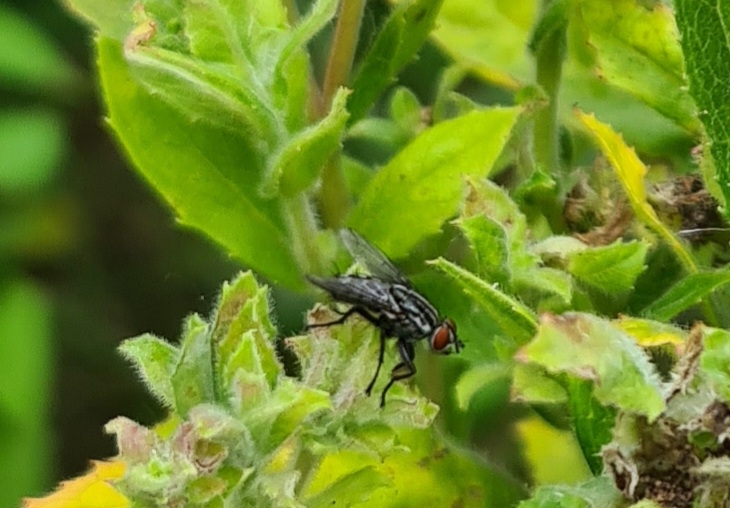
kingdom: Animalia
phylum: Arthropoda
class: Insecta
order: Diptera
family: Sarcophagidae
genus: Sarcophaga
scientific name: Sarcophaga
